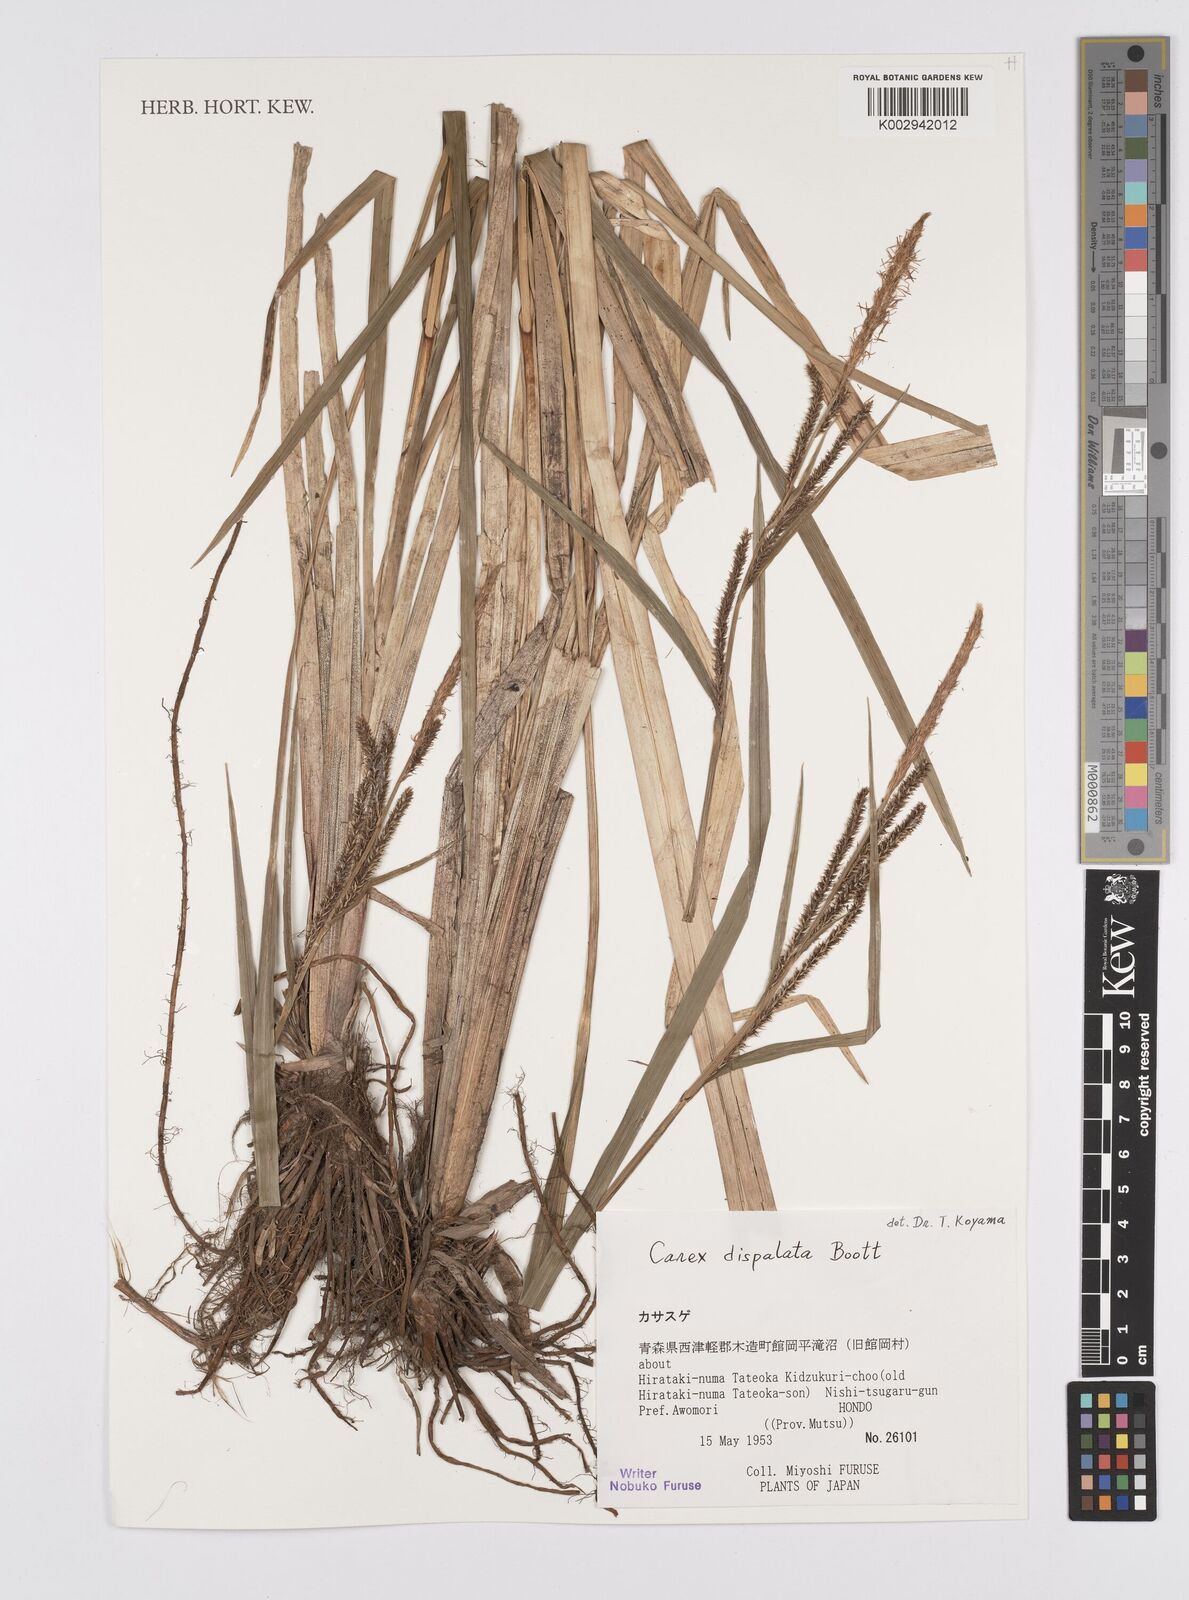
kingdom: Plantae
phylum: Tracheophyta
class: Liliopsida
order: Poales
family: Cyperaceae
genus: Carex
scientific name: Carex dispalata
